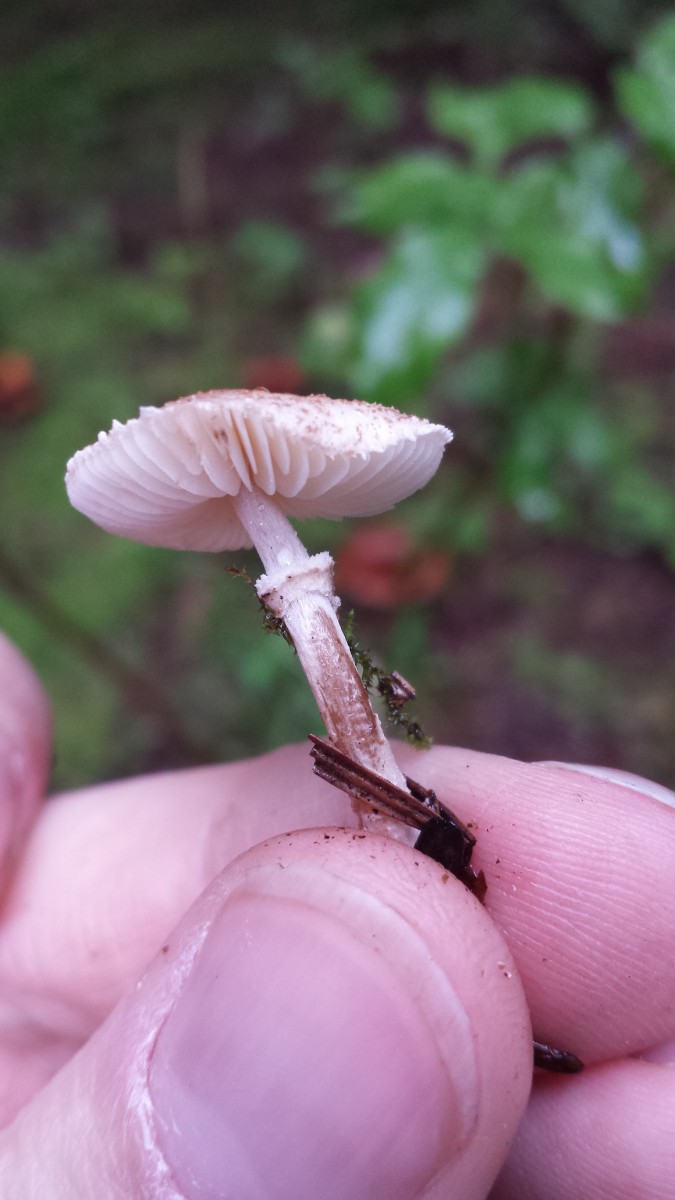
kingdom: Fungi
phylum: Basidiomycota
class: Agaricomycetes
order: Agaricales
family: Agaricaceae
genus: Lepiota
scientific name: Lepiota felina
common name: sortskællet parasolhat
